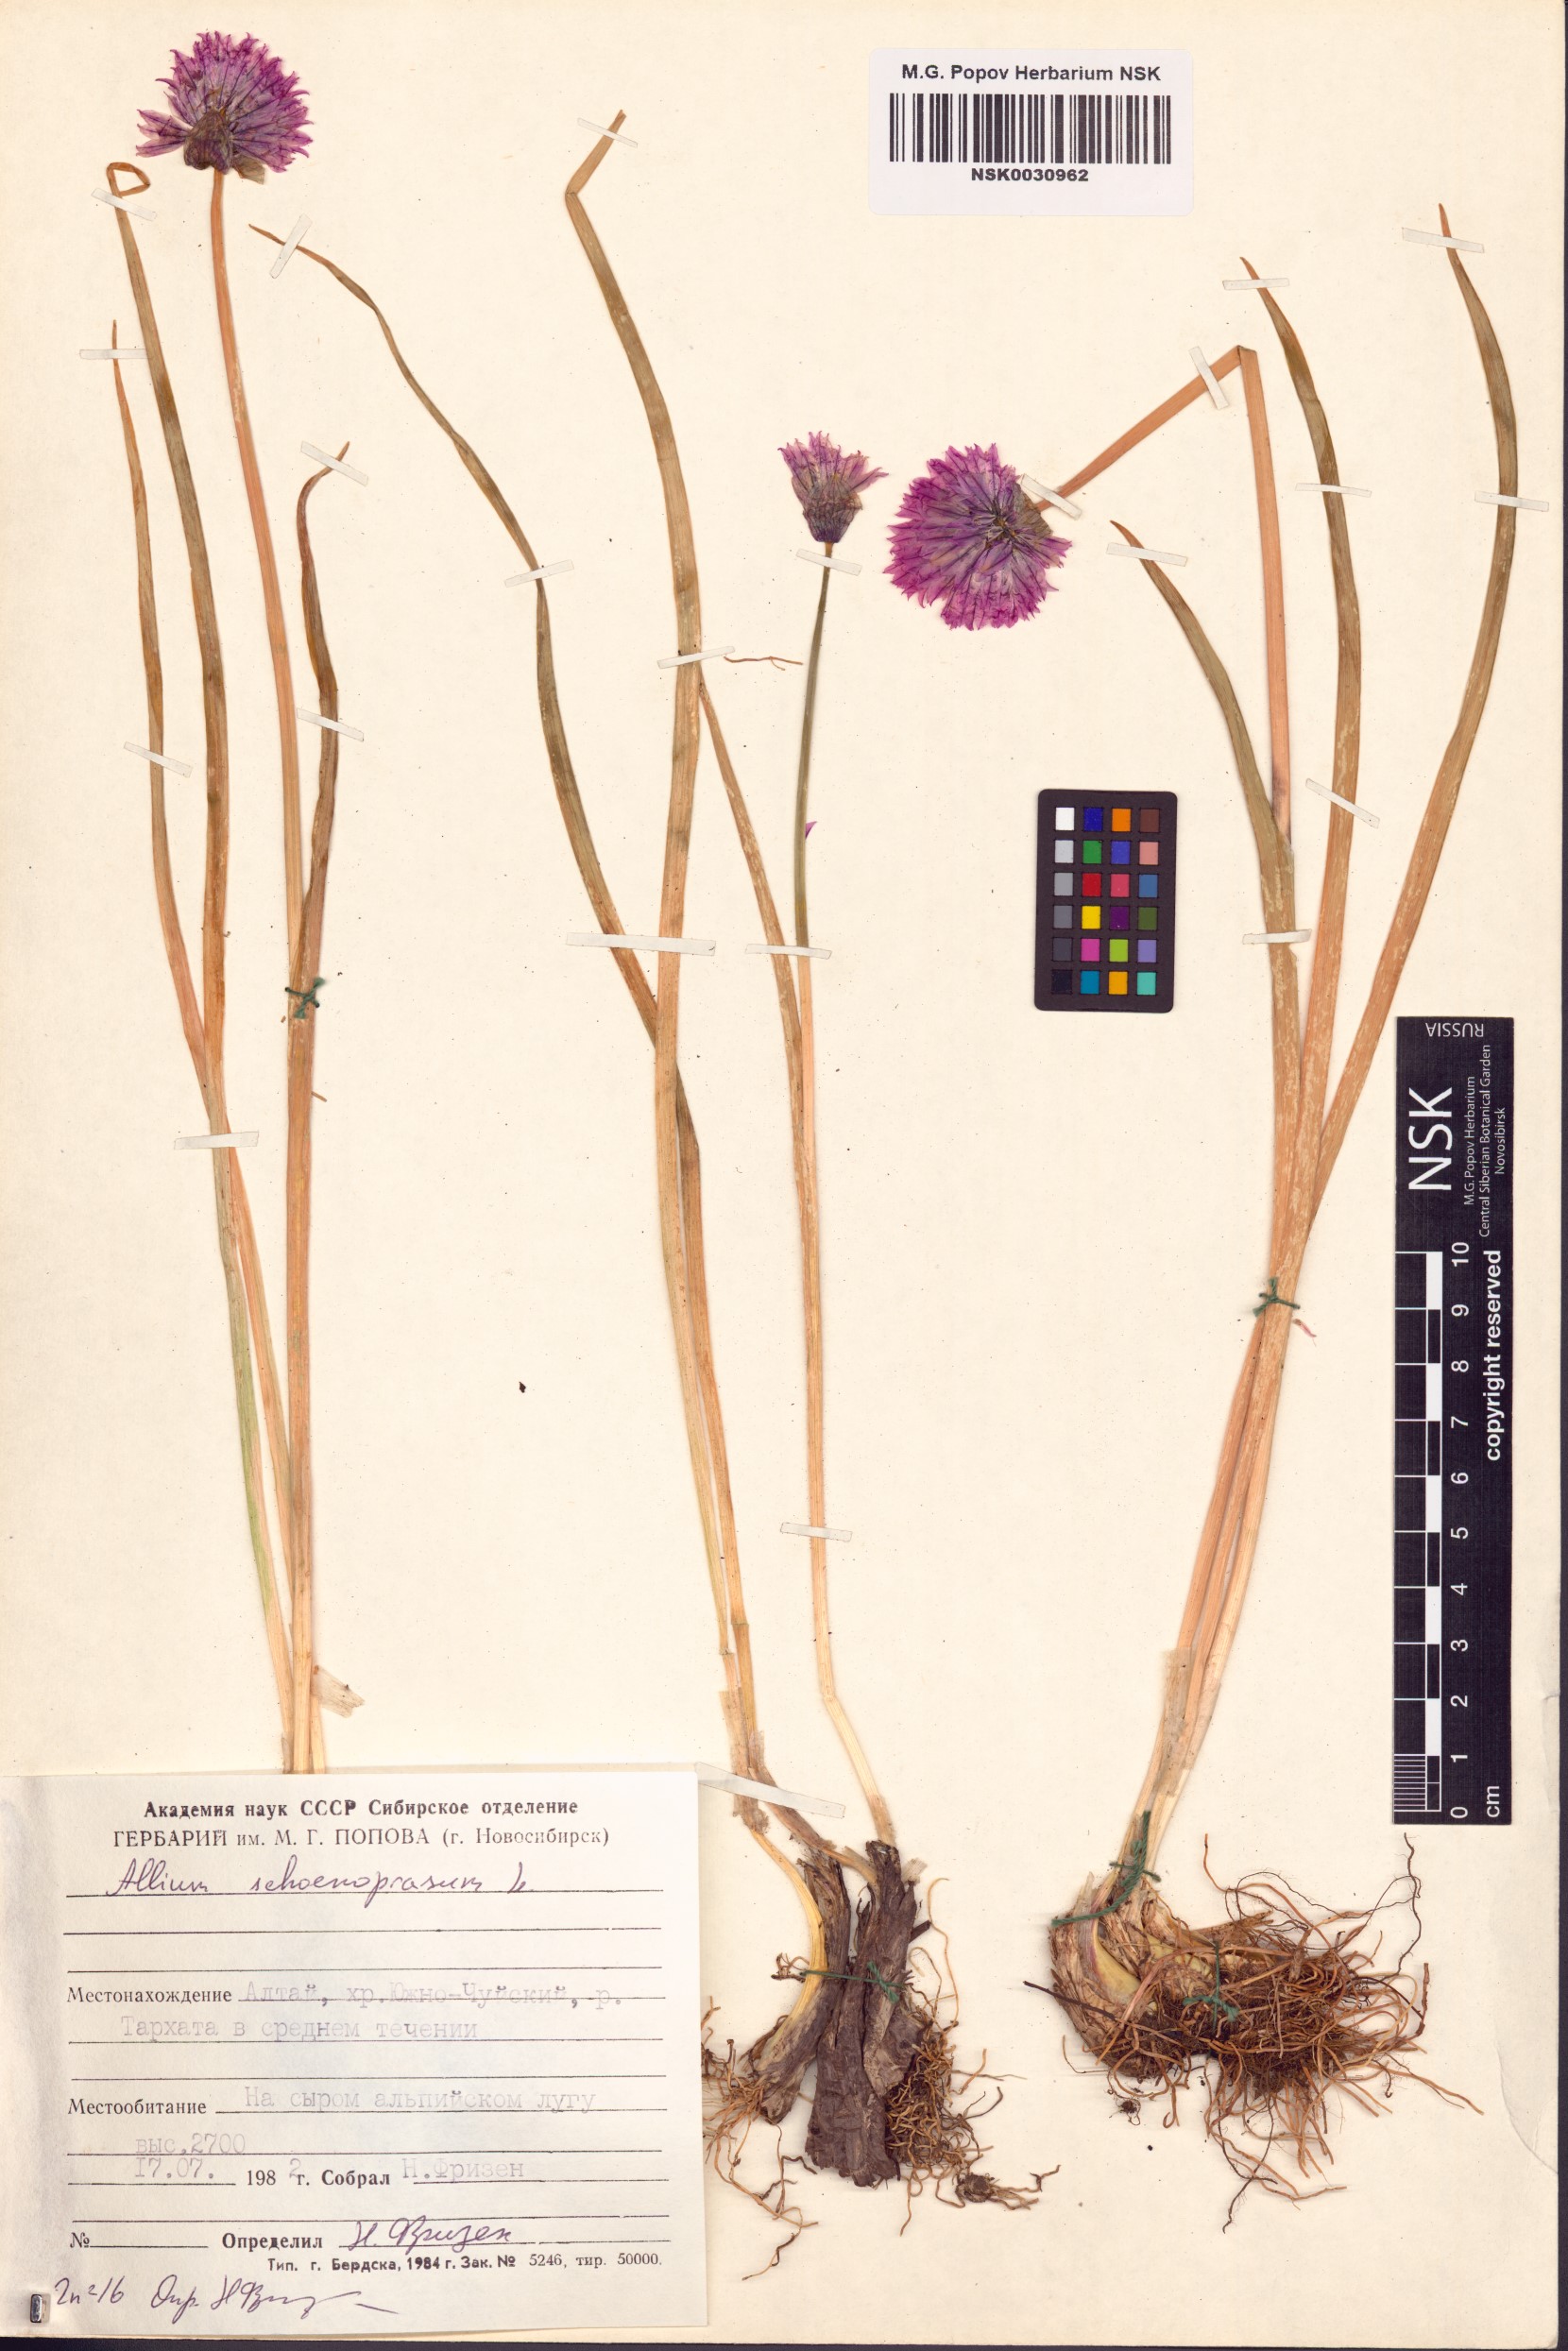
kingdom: Plantae
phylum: Tracheophyta
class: Liliopsida
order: Asparagales
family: Amaryllidaceae
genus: Allium
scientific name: Allium schoenoprasum
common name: Chives
